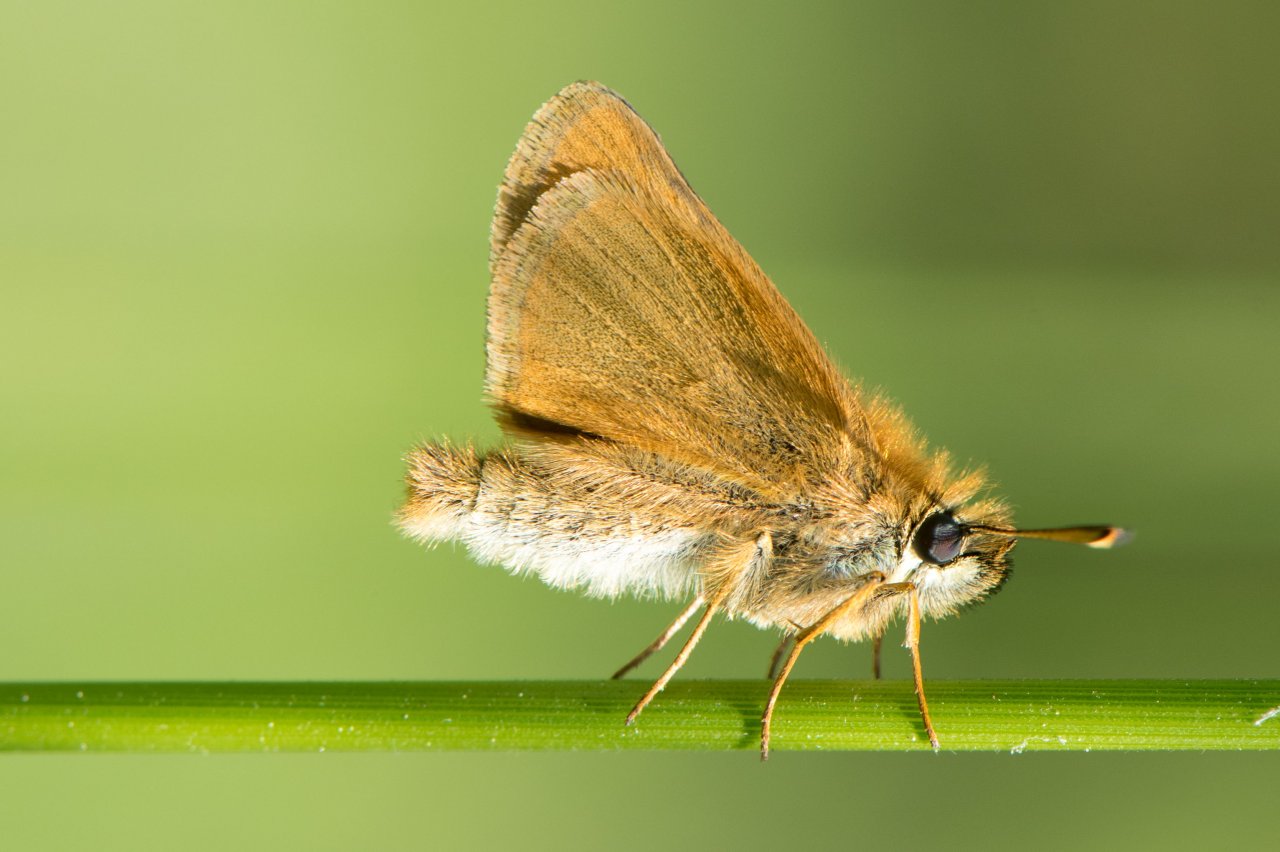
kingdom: Animalia
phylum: Arthropoda
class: Insecta
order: Lepidoptera
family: Hesperiidae
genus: Thymelicus
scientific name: Thymelicus lineola
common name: European Skipper
